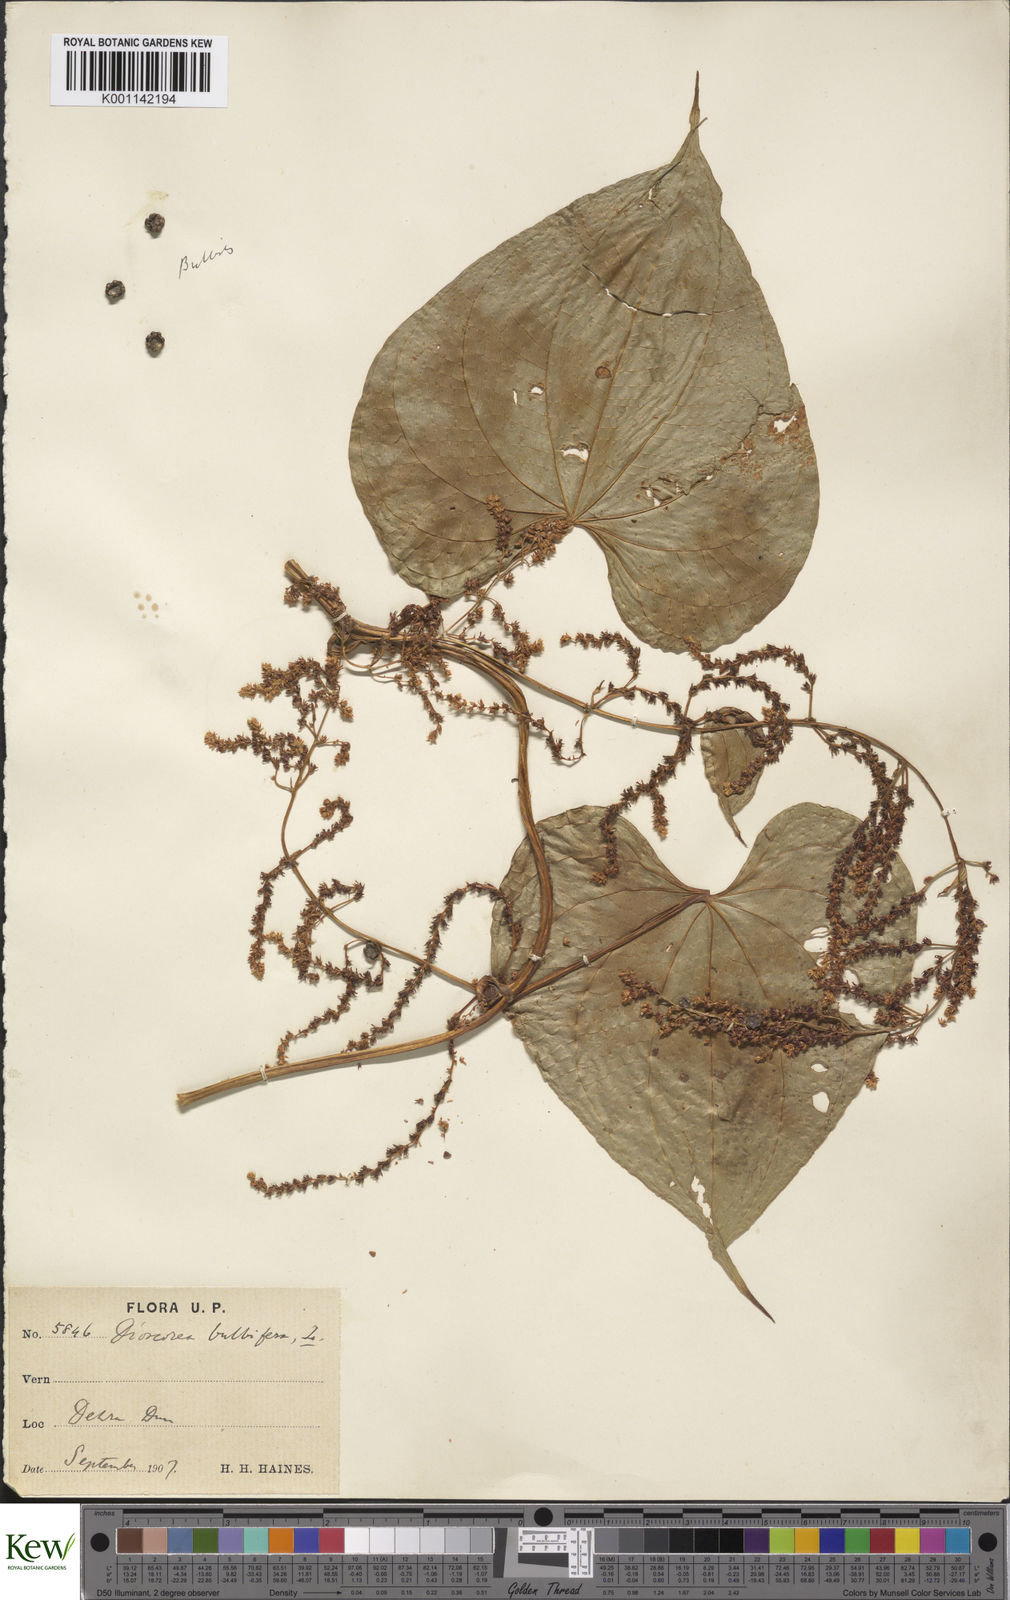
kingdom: Plantae
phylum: Tracheophyta
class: Liliopsida
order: Dioscoreales
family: Dioscoreaceae
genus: Dioscorea
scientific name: Dioscorea bulbifera
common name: Air yam
